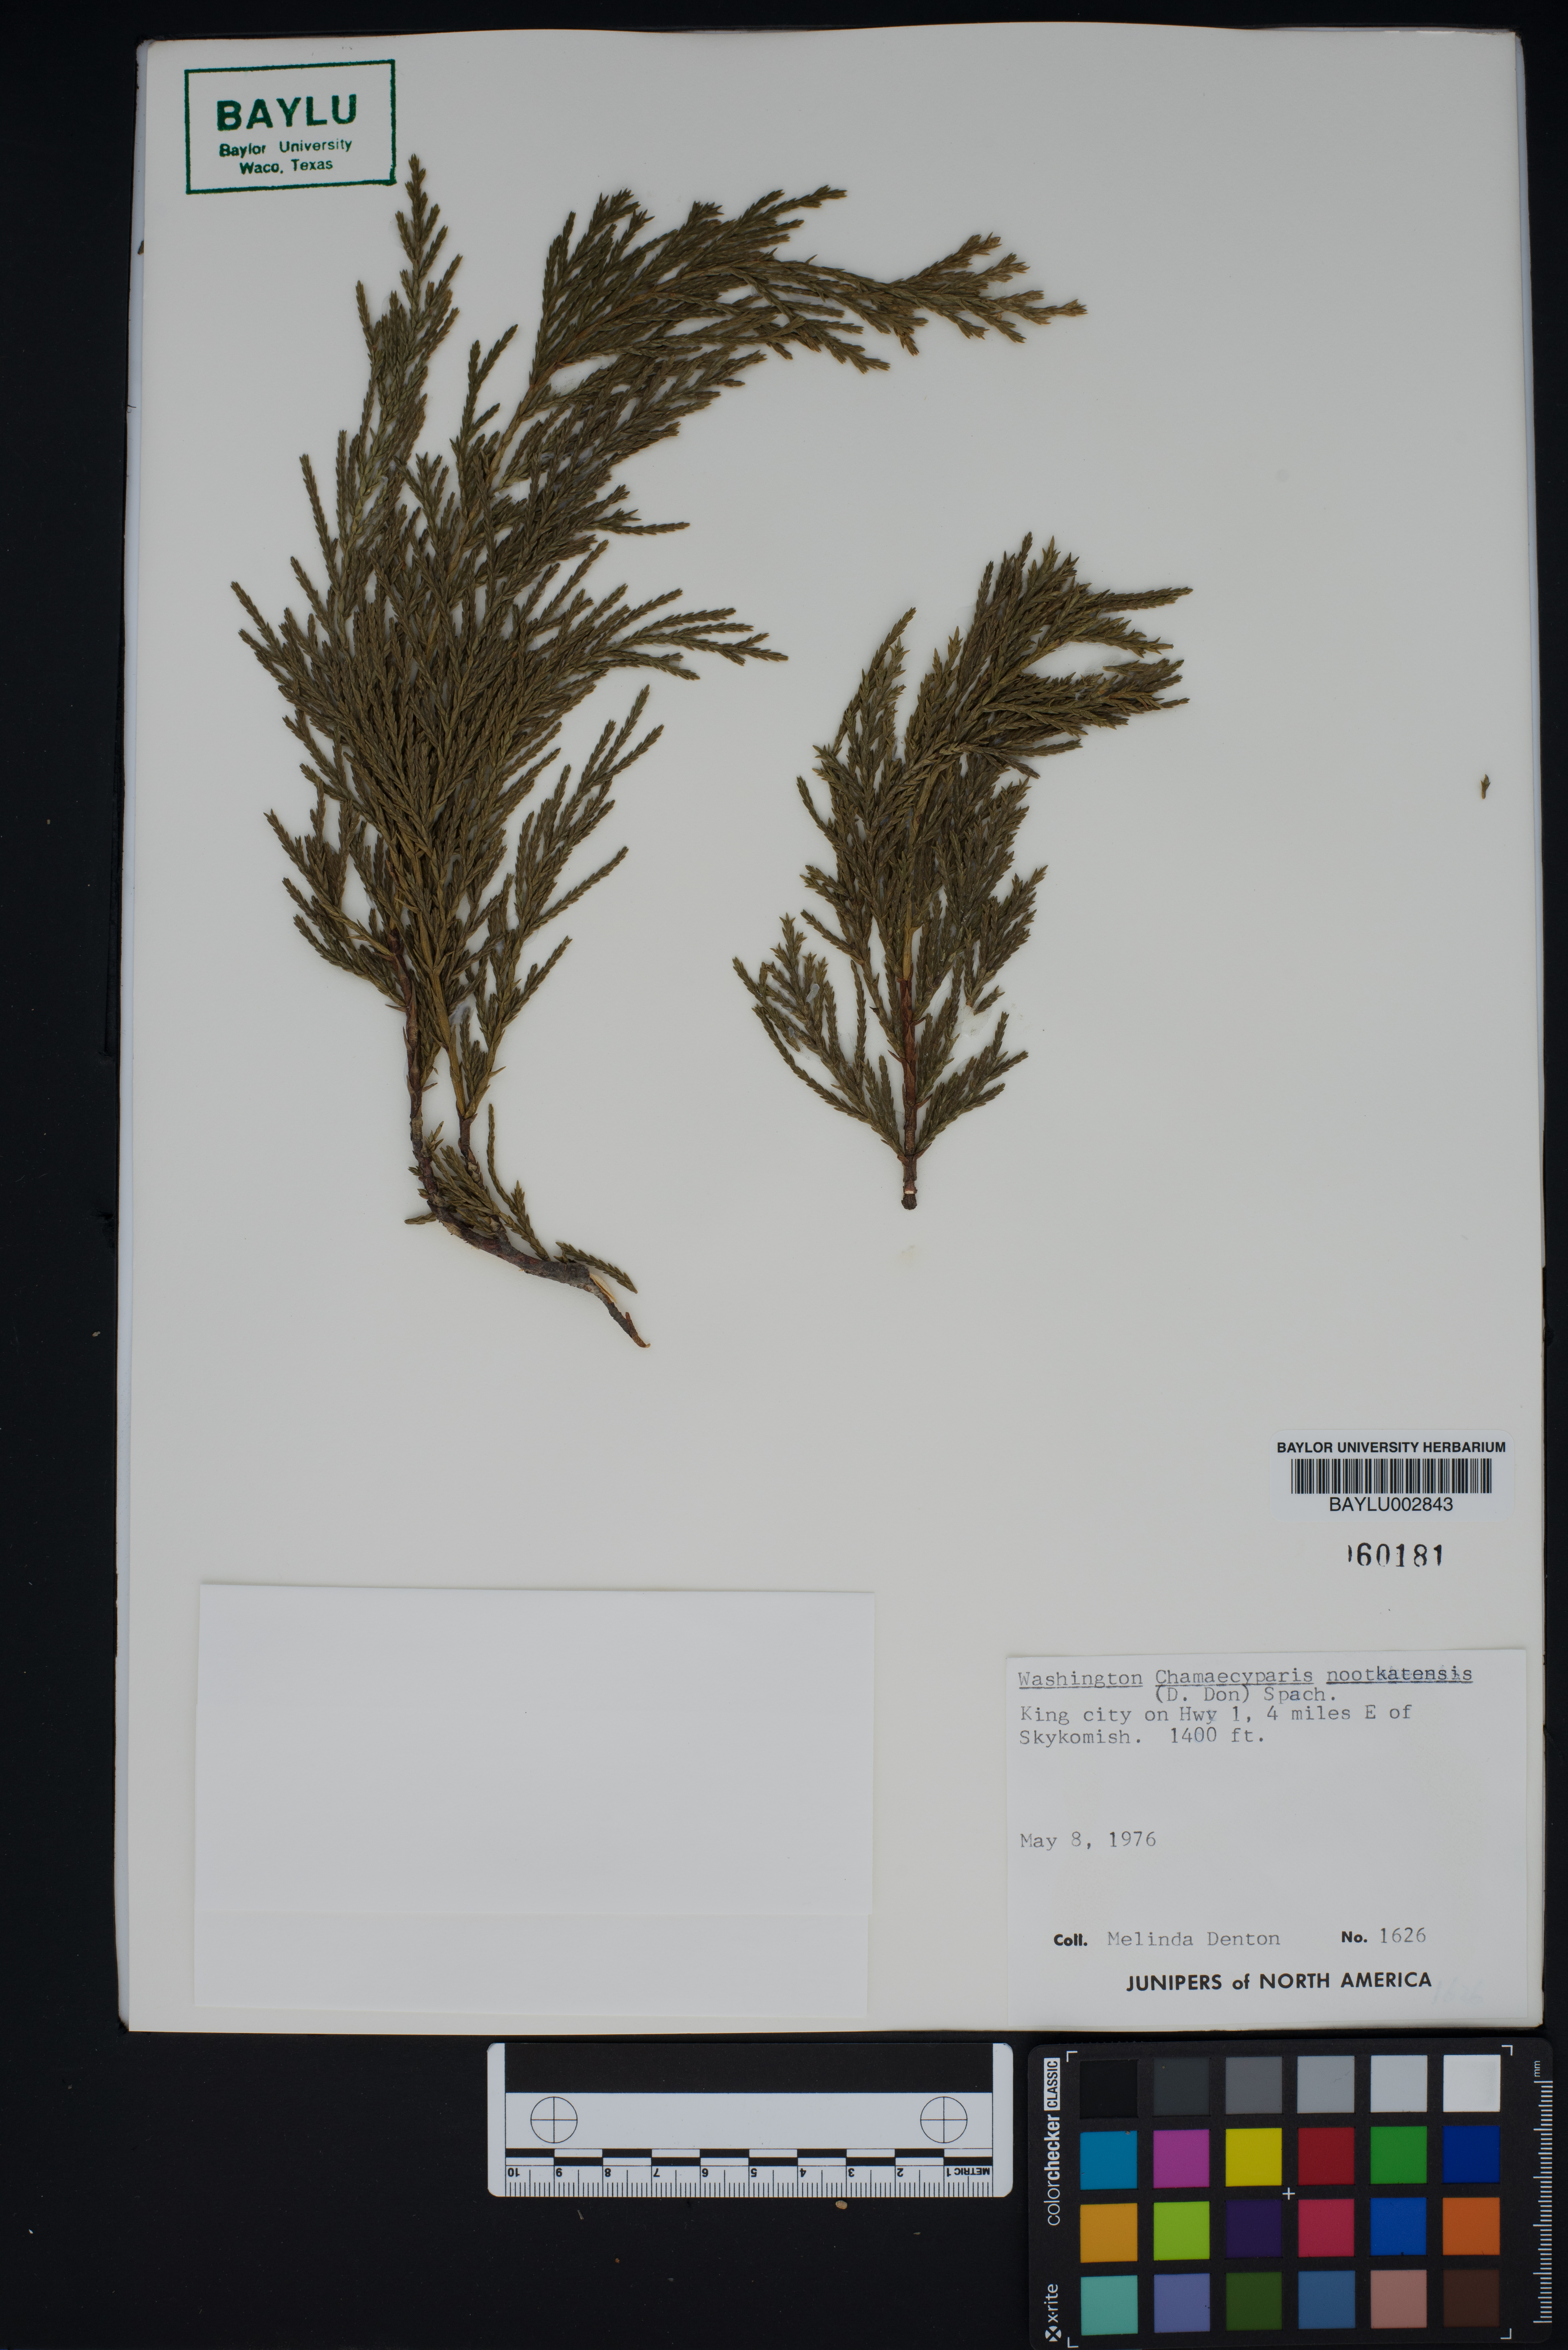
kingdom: Plantae
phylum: Tracheophyta
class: Pinopsida
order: Pinales
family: Cupressaceae
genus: Xanthocyparis
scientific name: Xanthocyparis nootkatensis
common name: Nootka cypress
